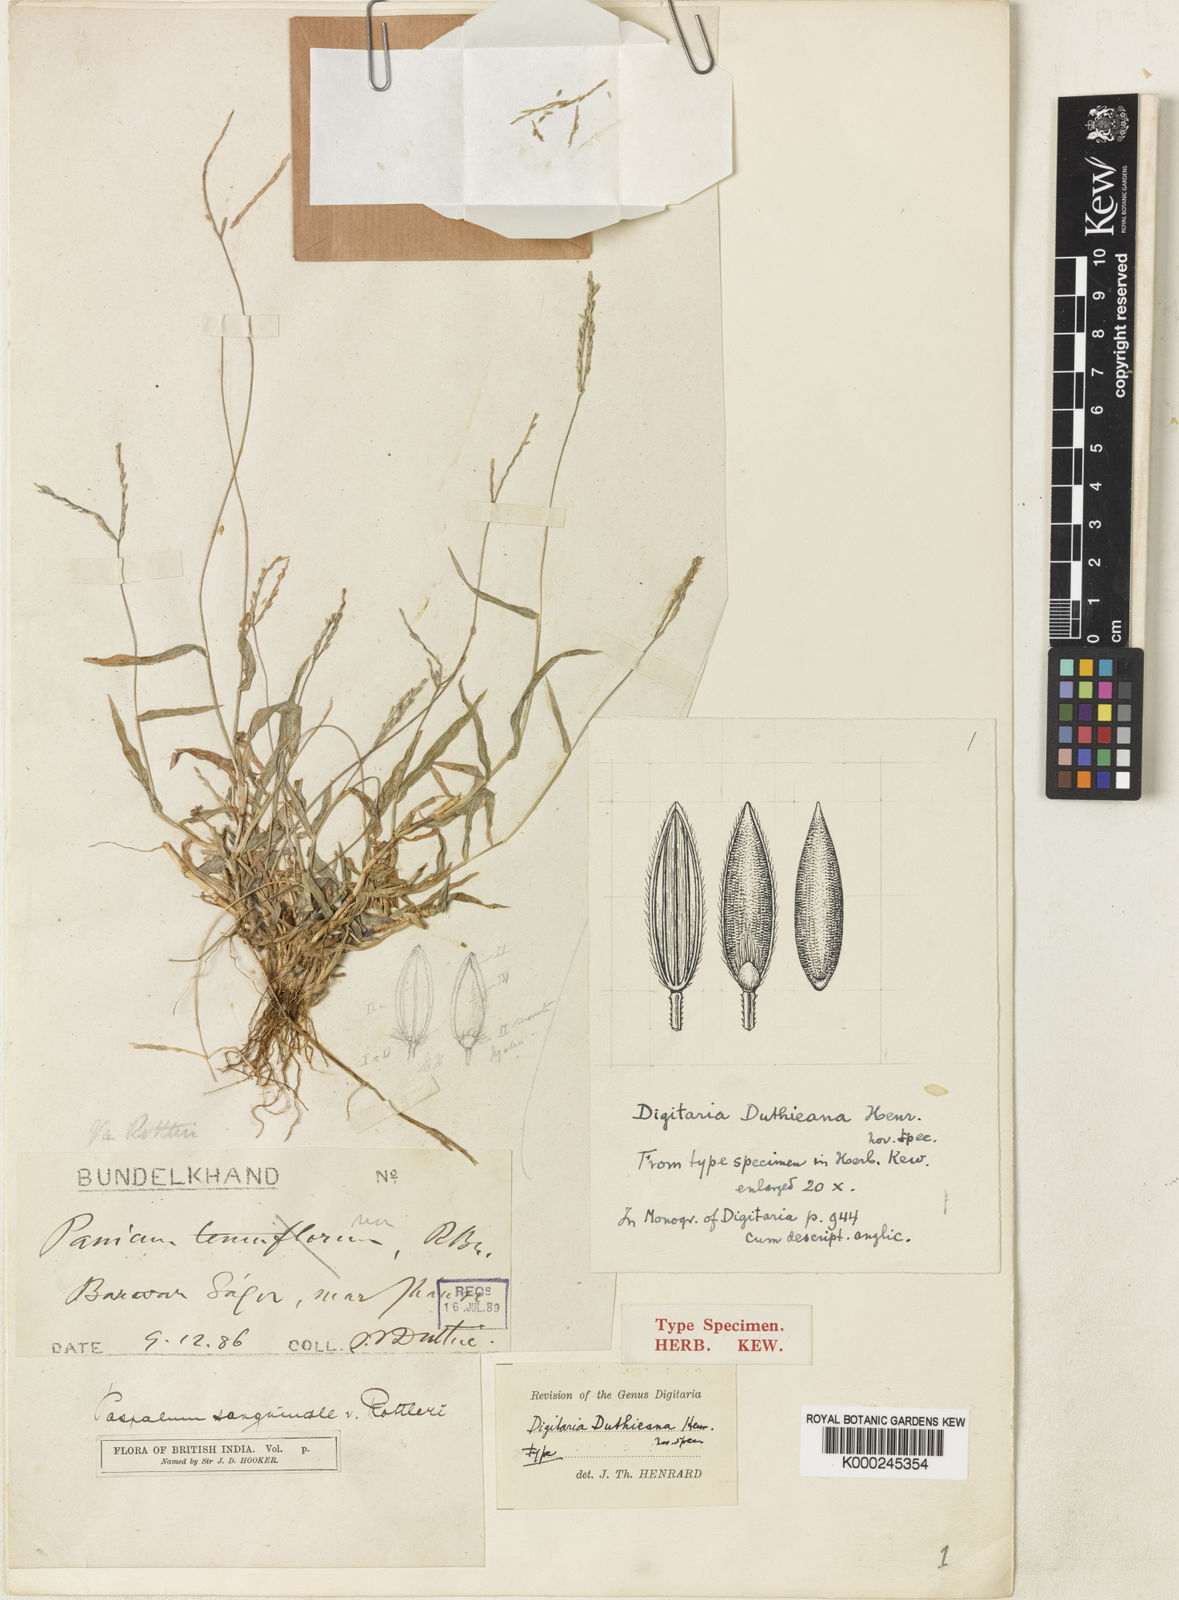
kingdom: Plantae
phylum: Tracheophyta
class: Liliopsida
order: Poales
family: Poaceae
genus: Digitaria
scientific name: Digitaria
